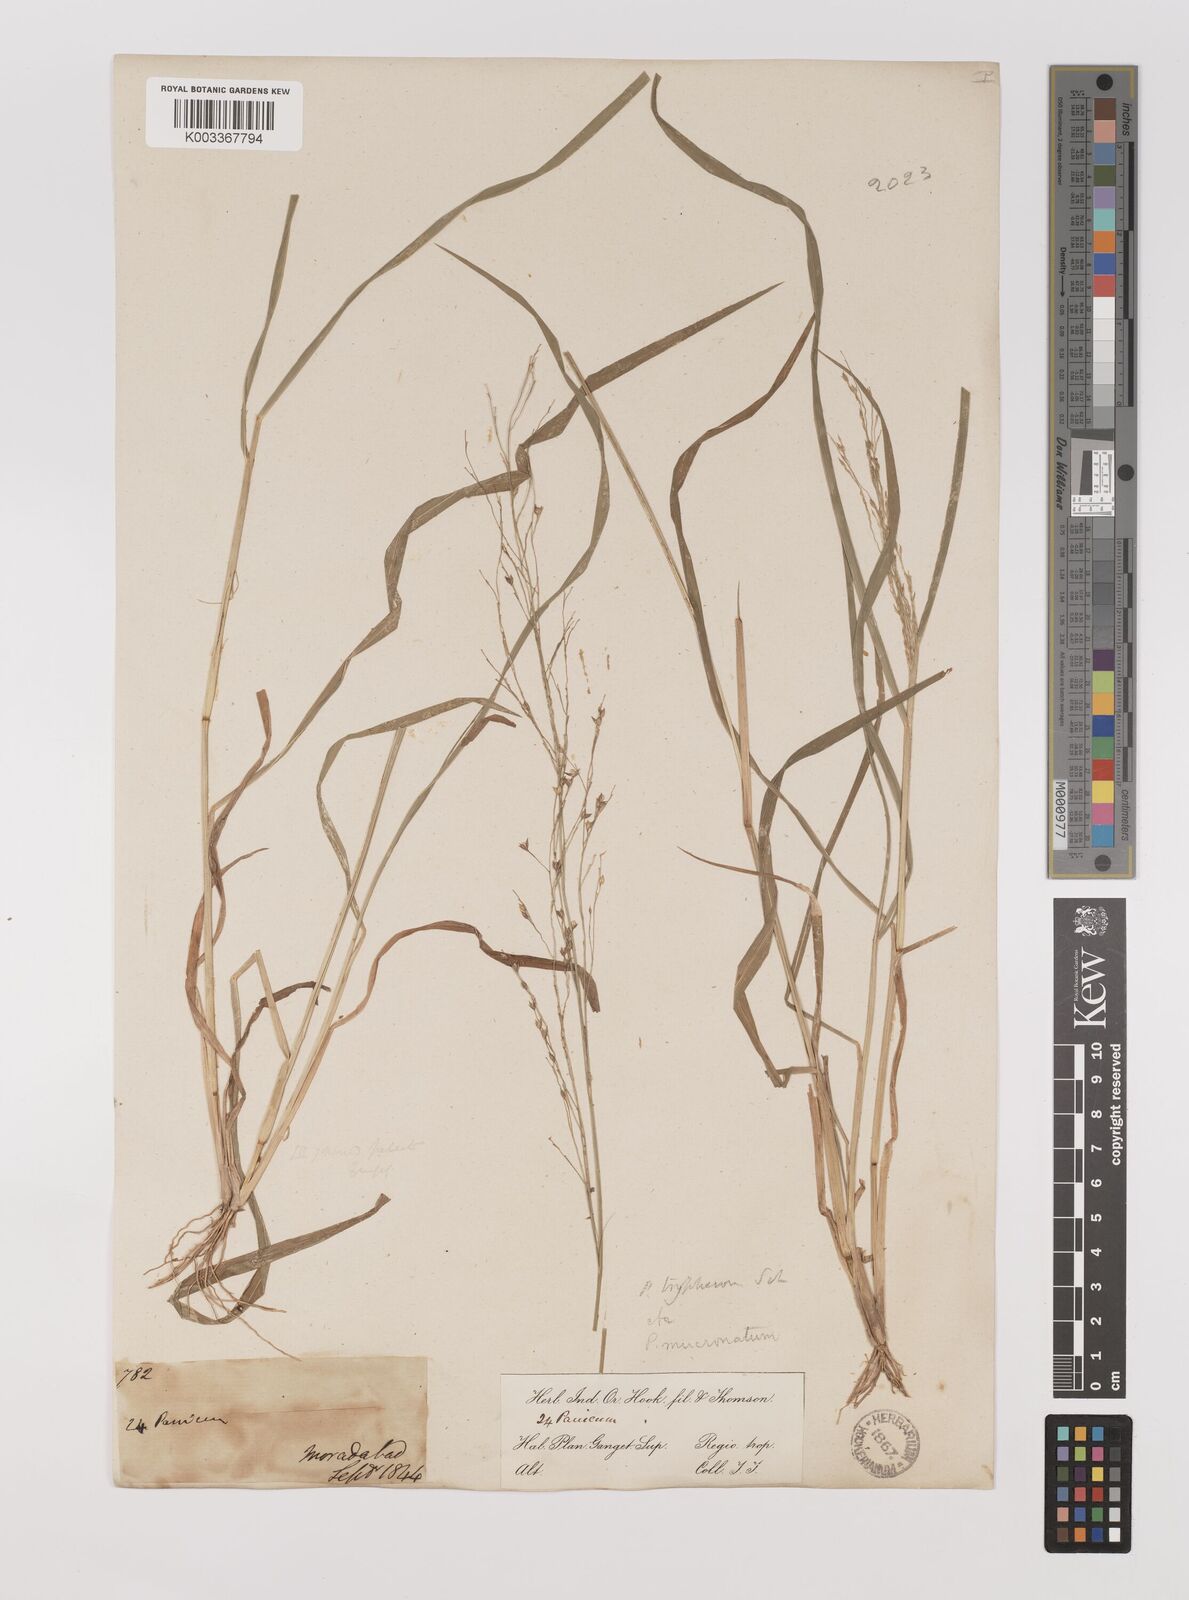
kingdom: Plantae
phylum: Tracheophyta
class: Liliopsida
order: Poales
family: Poaceae
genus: Panicum
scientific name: Panicum curviflorum
